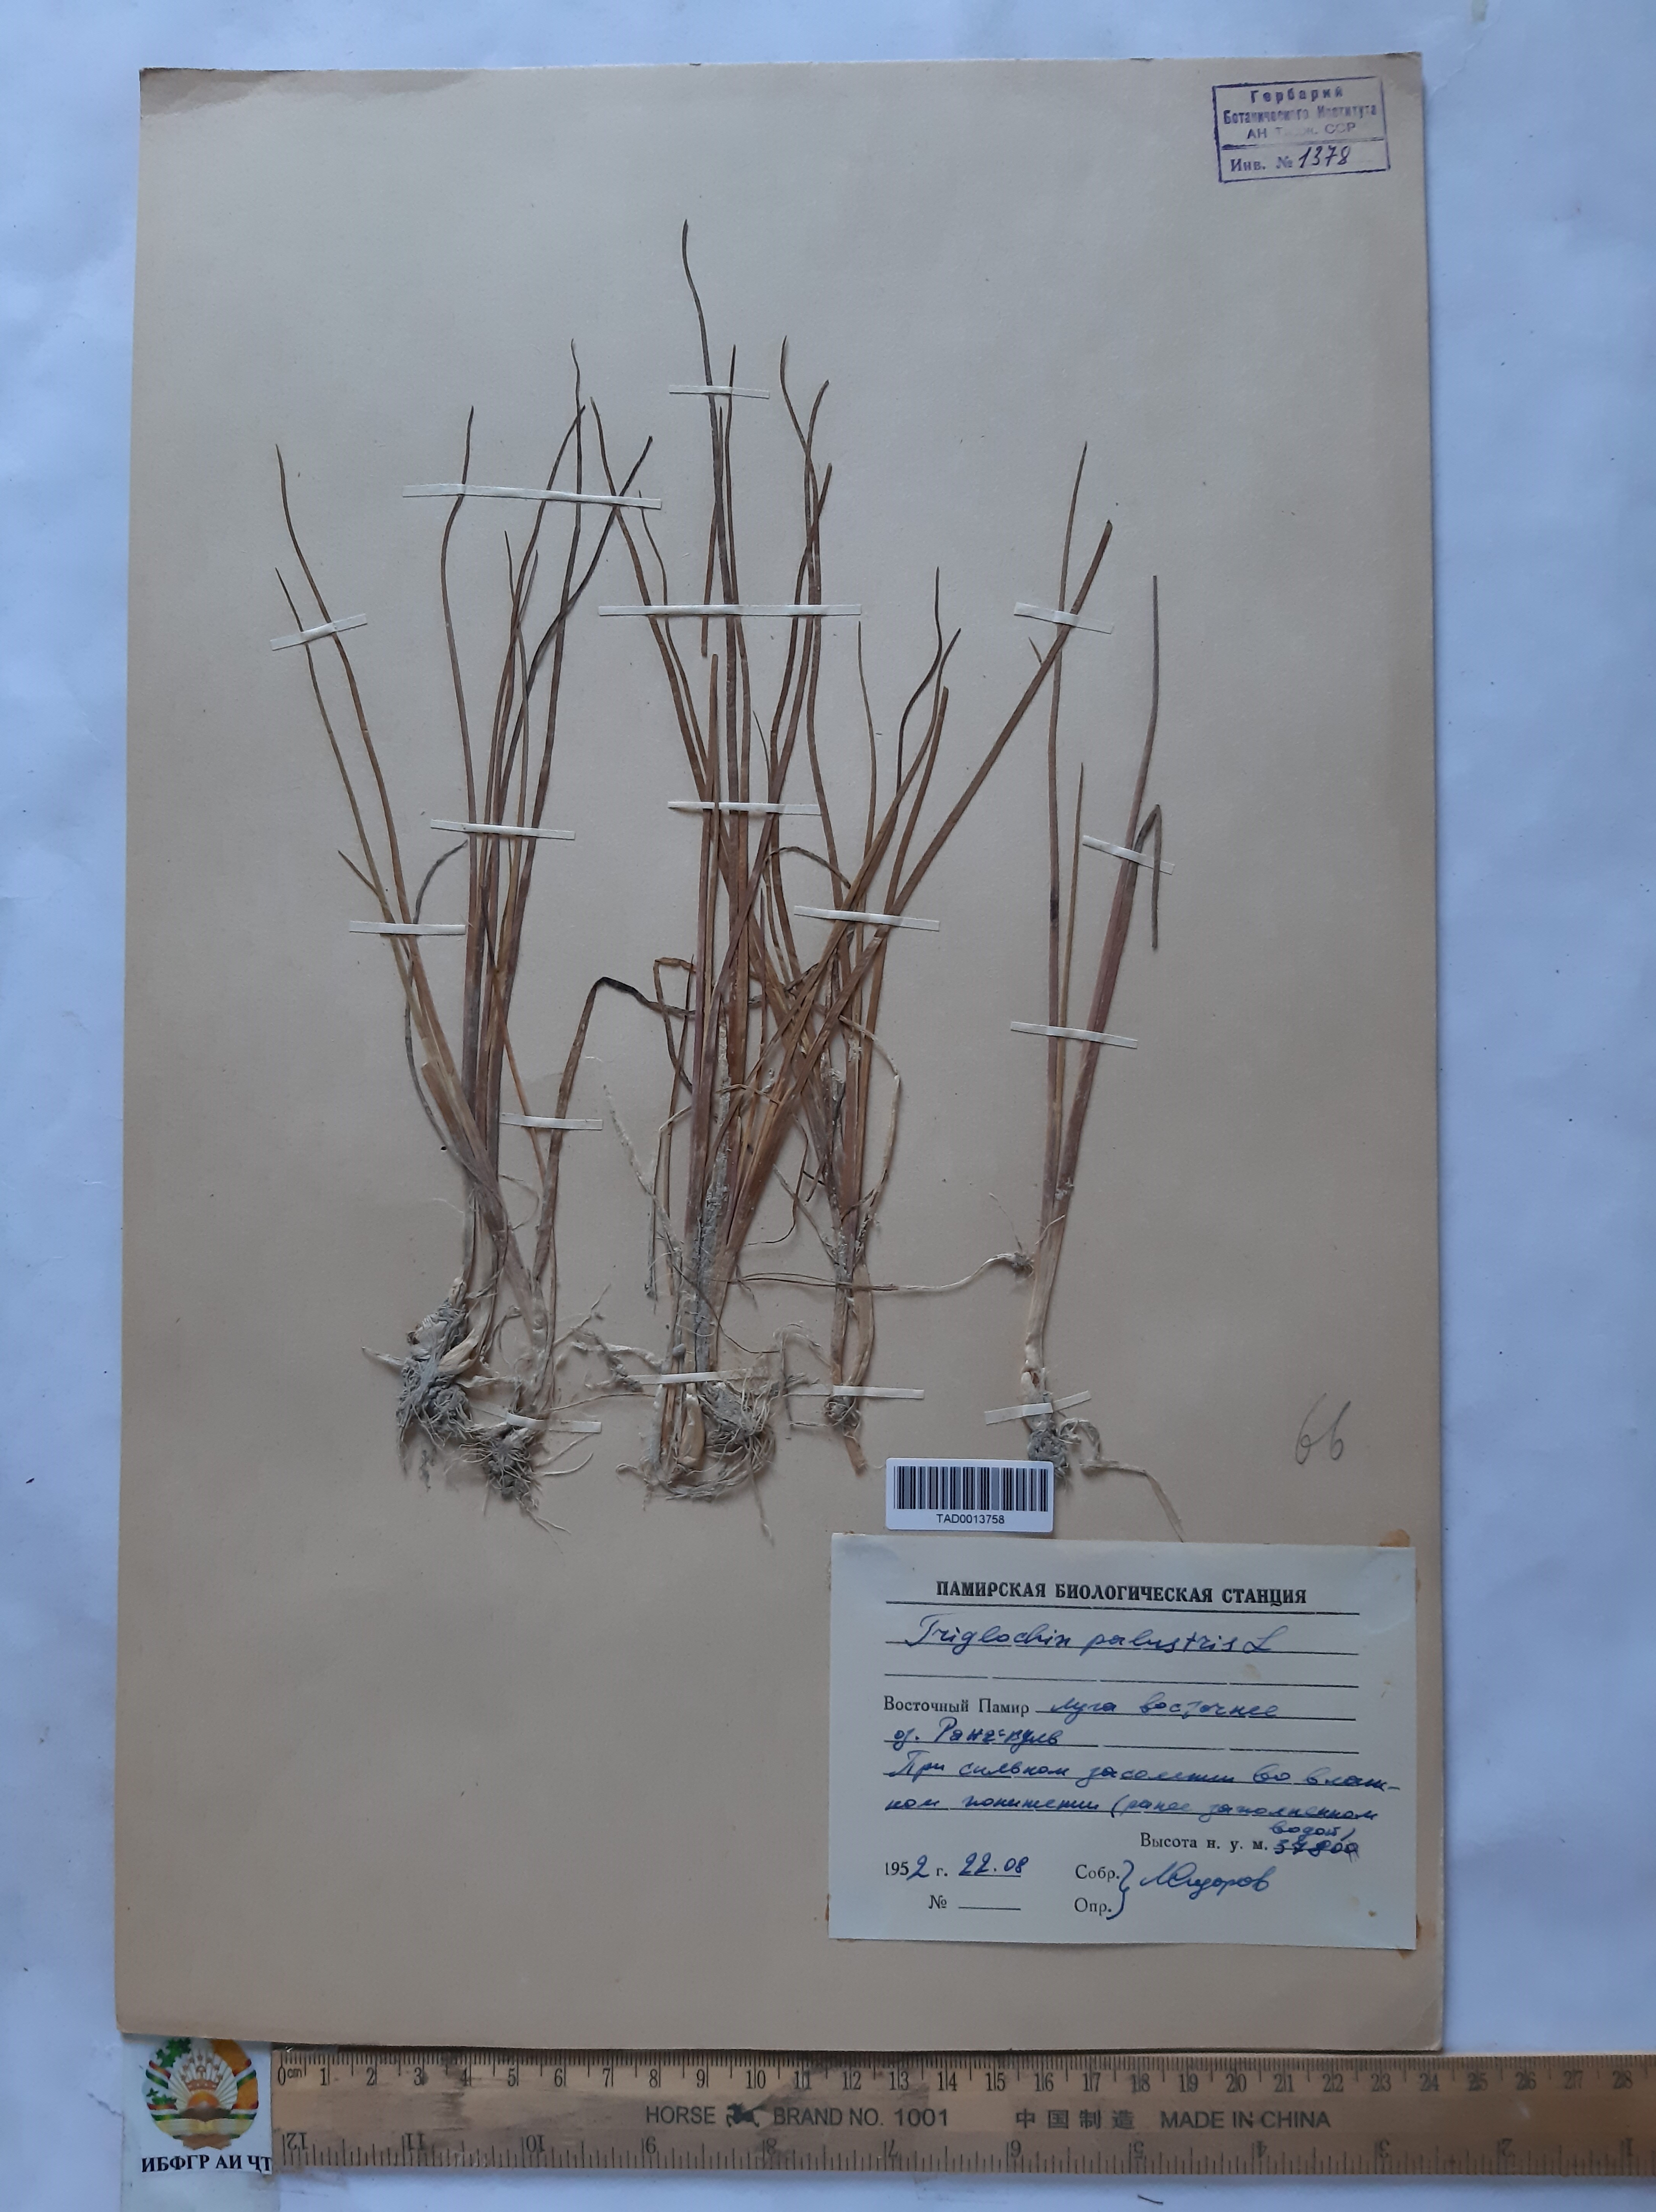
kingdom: Plantae
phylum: Tracheophyta
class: Liliopsida
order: Alismatales
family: Juncaginaceae
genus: Triglochin
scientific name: Triglochin palustris
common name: Marsh arrowgrass
